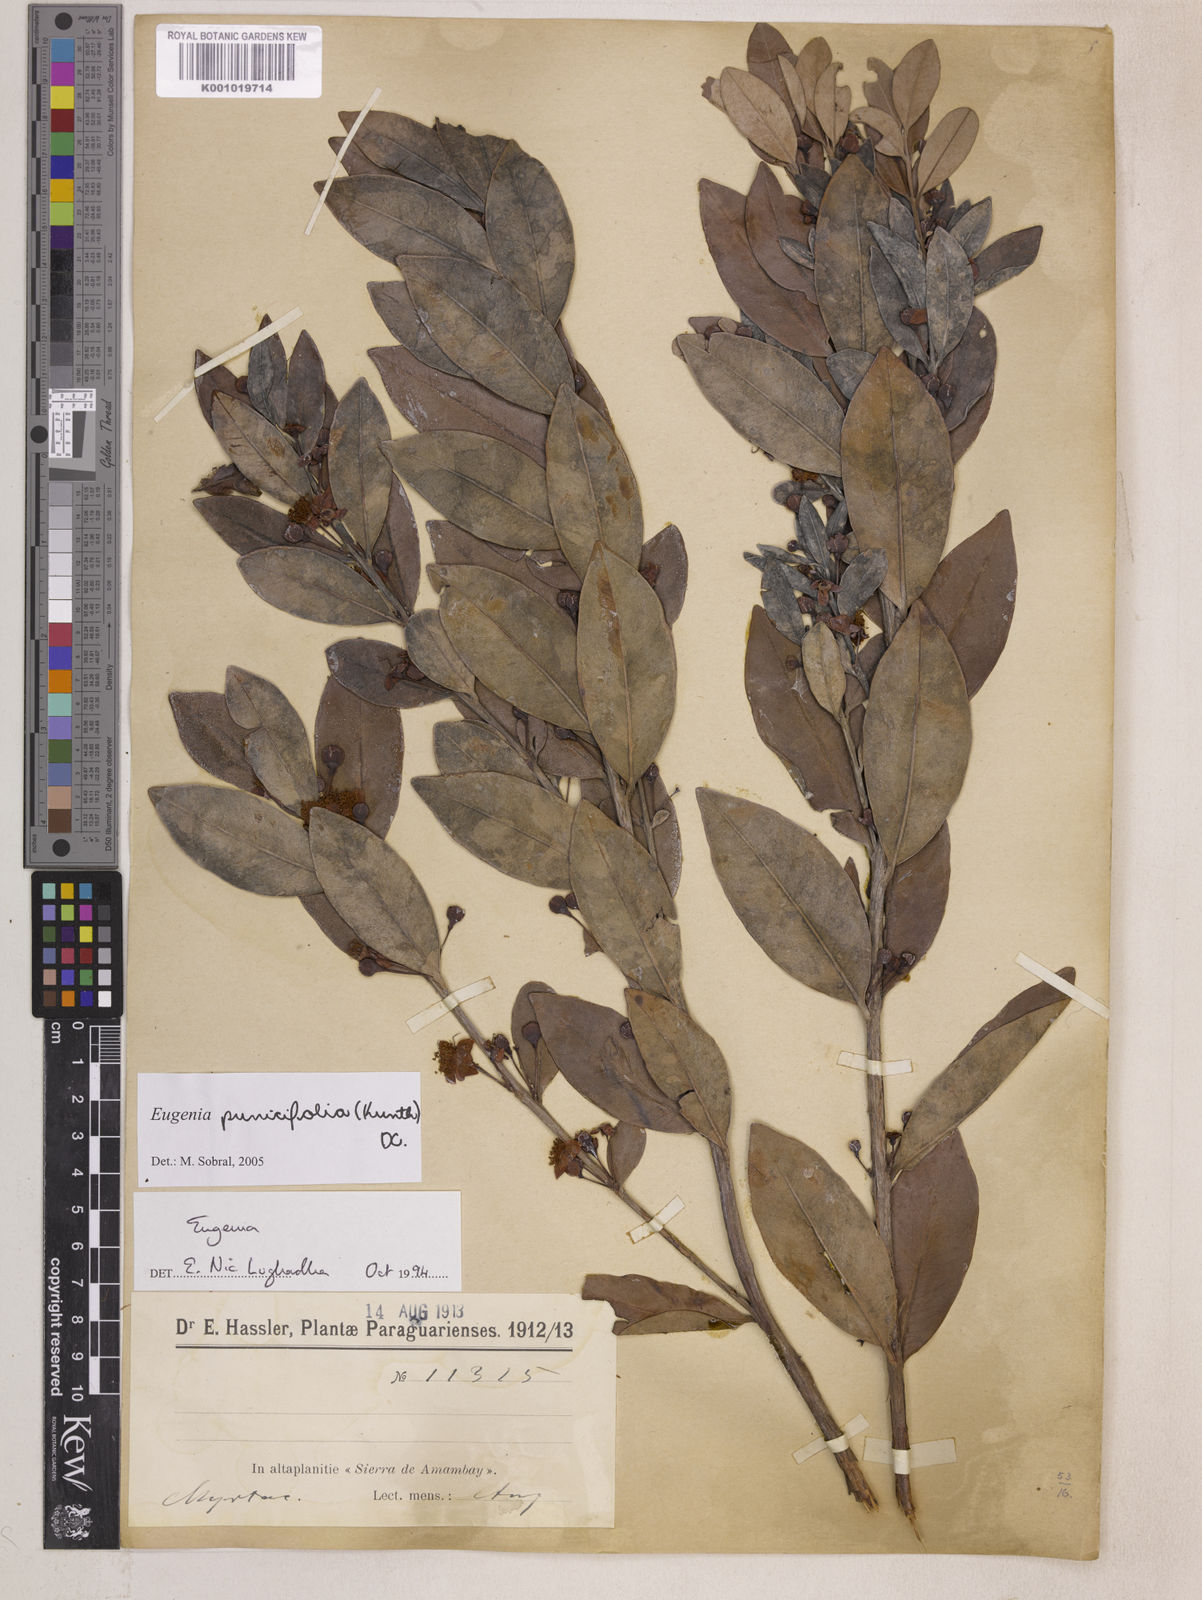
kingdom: Plantae
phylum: Tracheophyta
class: Magnoliopsida
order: Myrtales
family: Myrtaceae
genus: Eugenia
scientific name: Eugenia punicifolia
